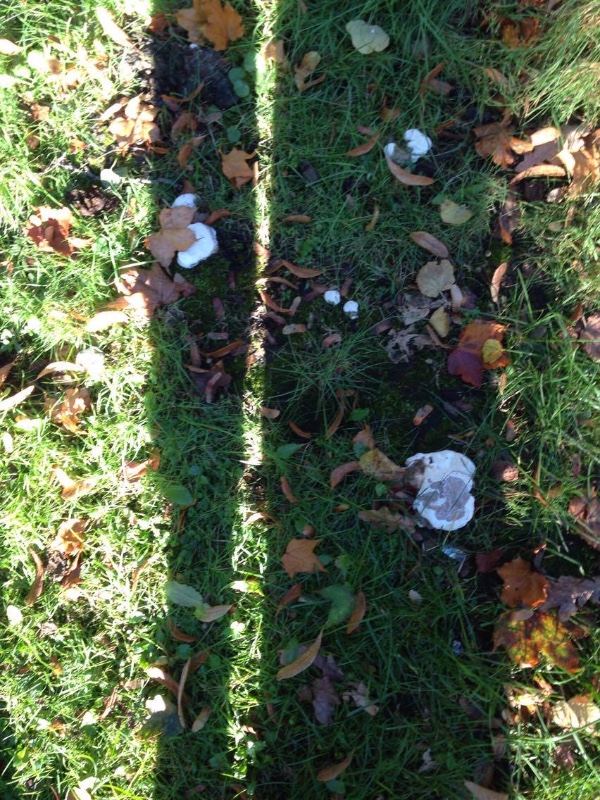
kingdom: Fungi
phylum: Basidiomycota
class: Agaricomycetes
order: Polyporales
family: Polyporaceae
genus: Ganoderma
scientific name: Ganoderma
